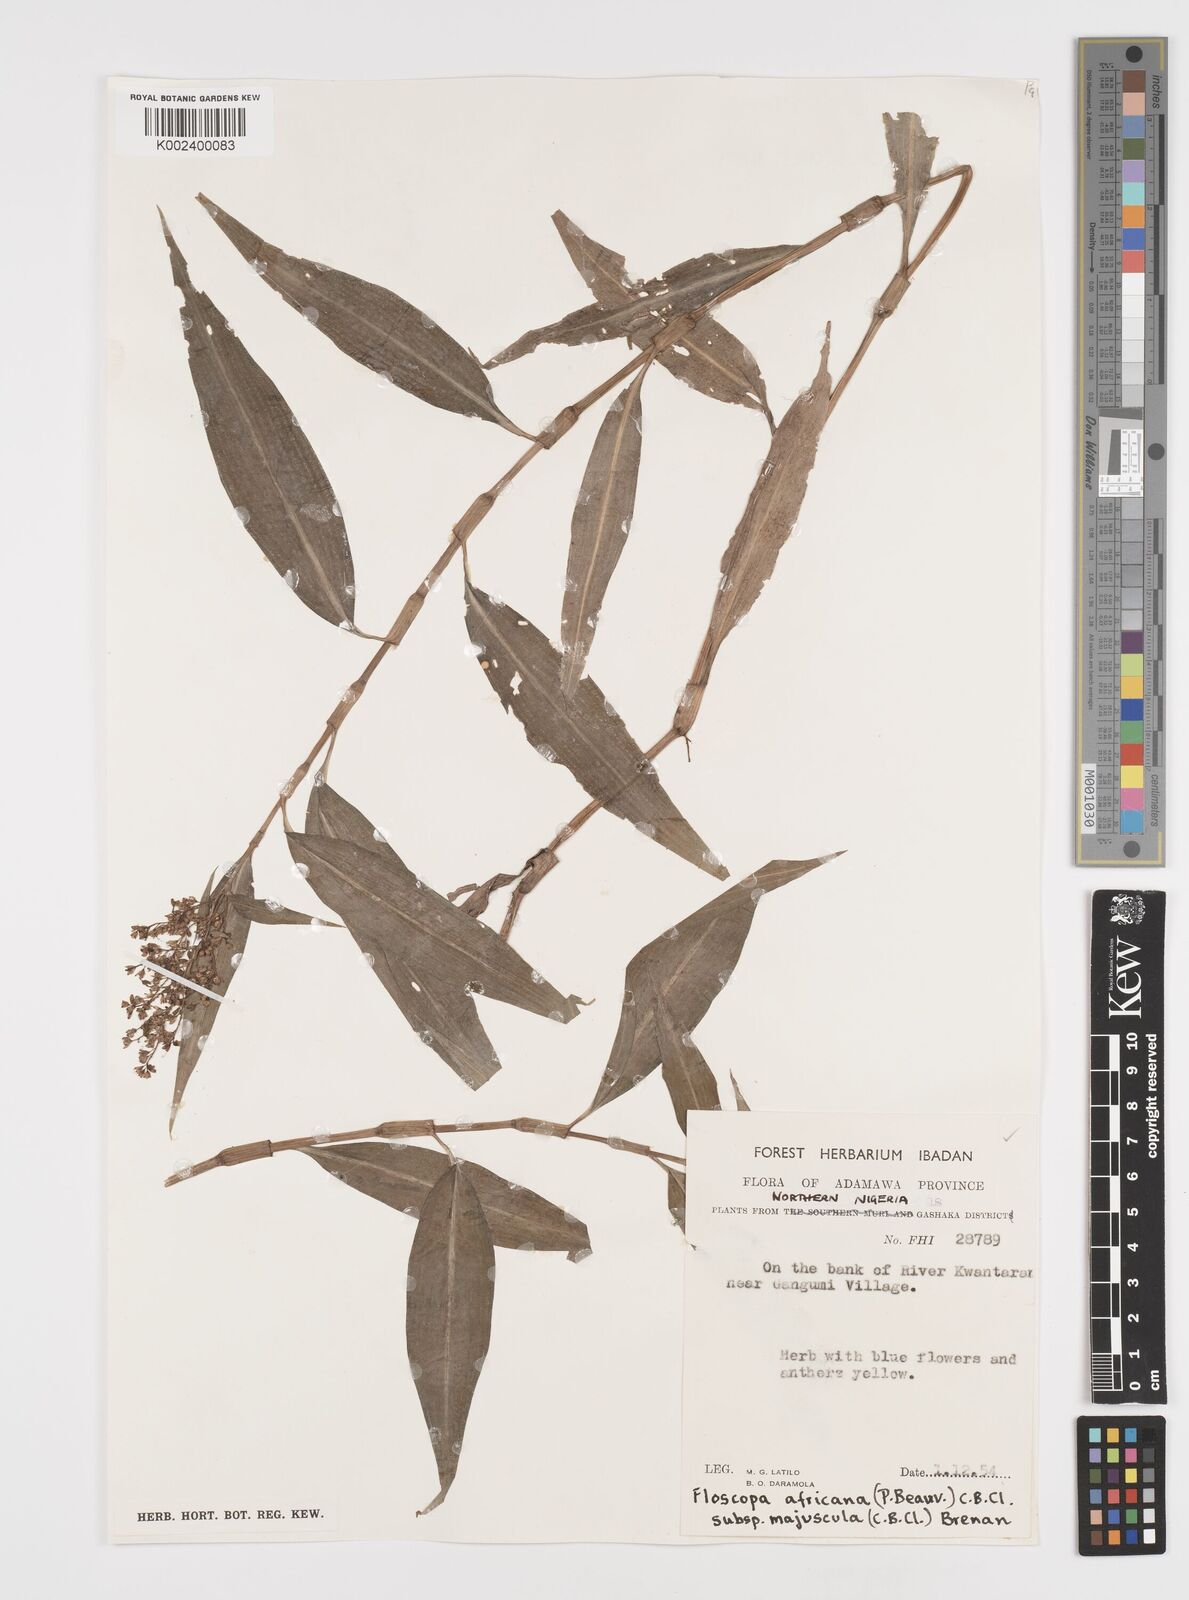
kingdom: Plantae
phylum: Tracheophyta
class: Liliopsida
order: Commelinales
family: Commelinaceae
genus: Floscopa
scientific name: Floscopa africana
